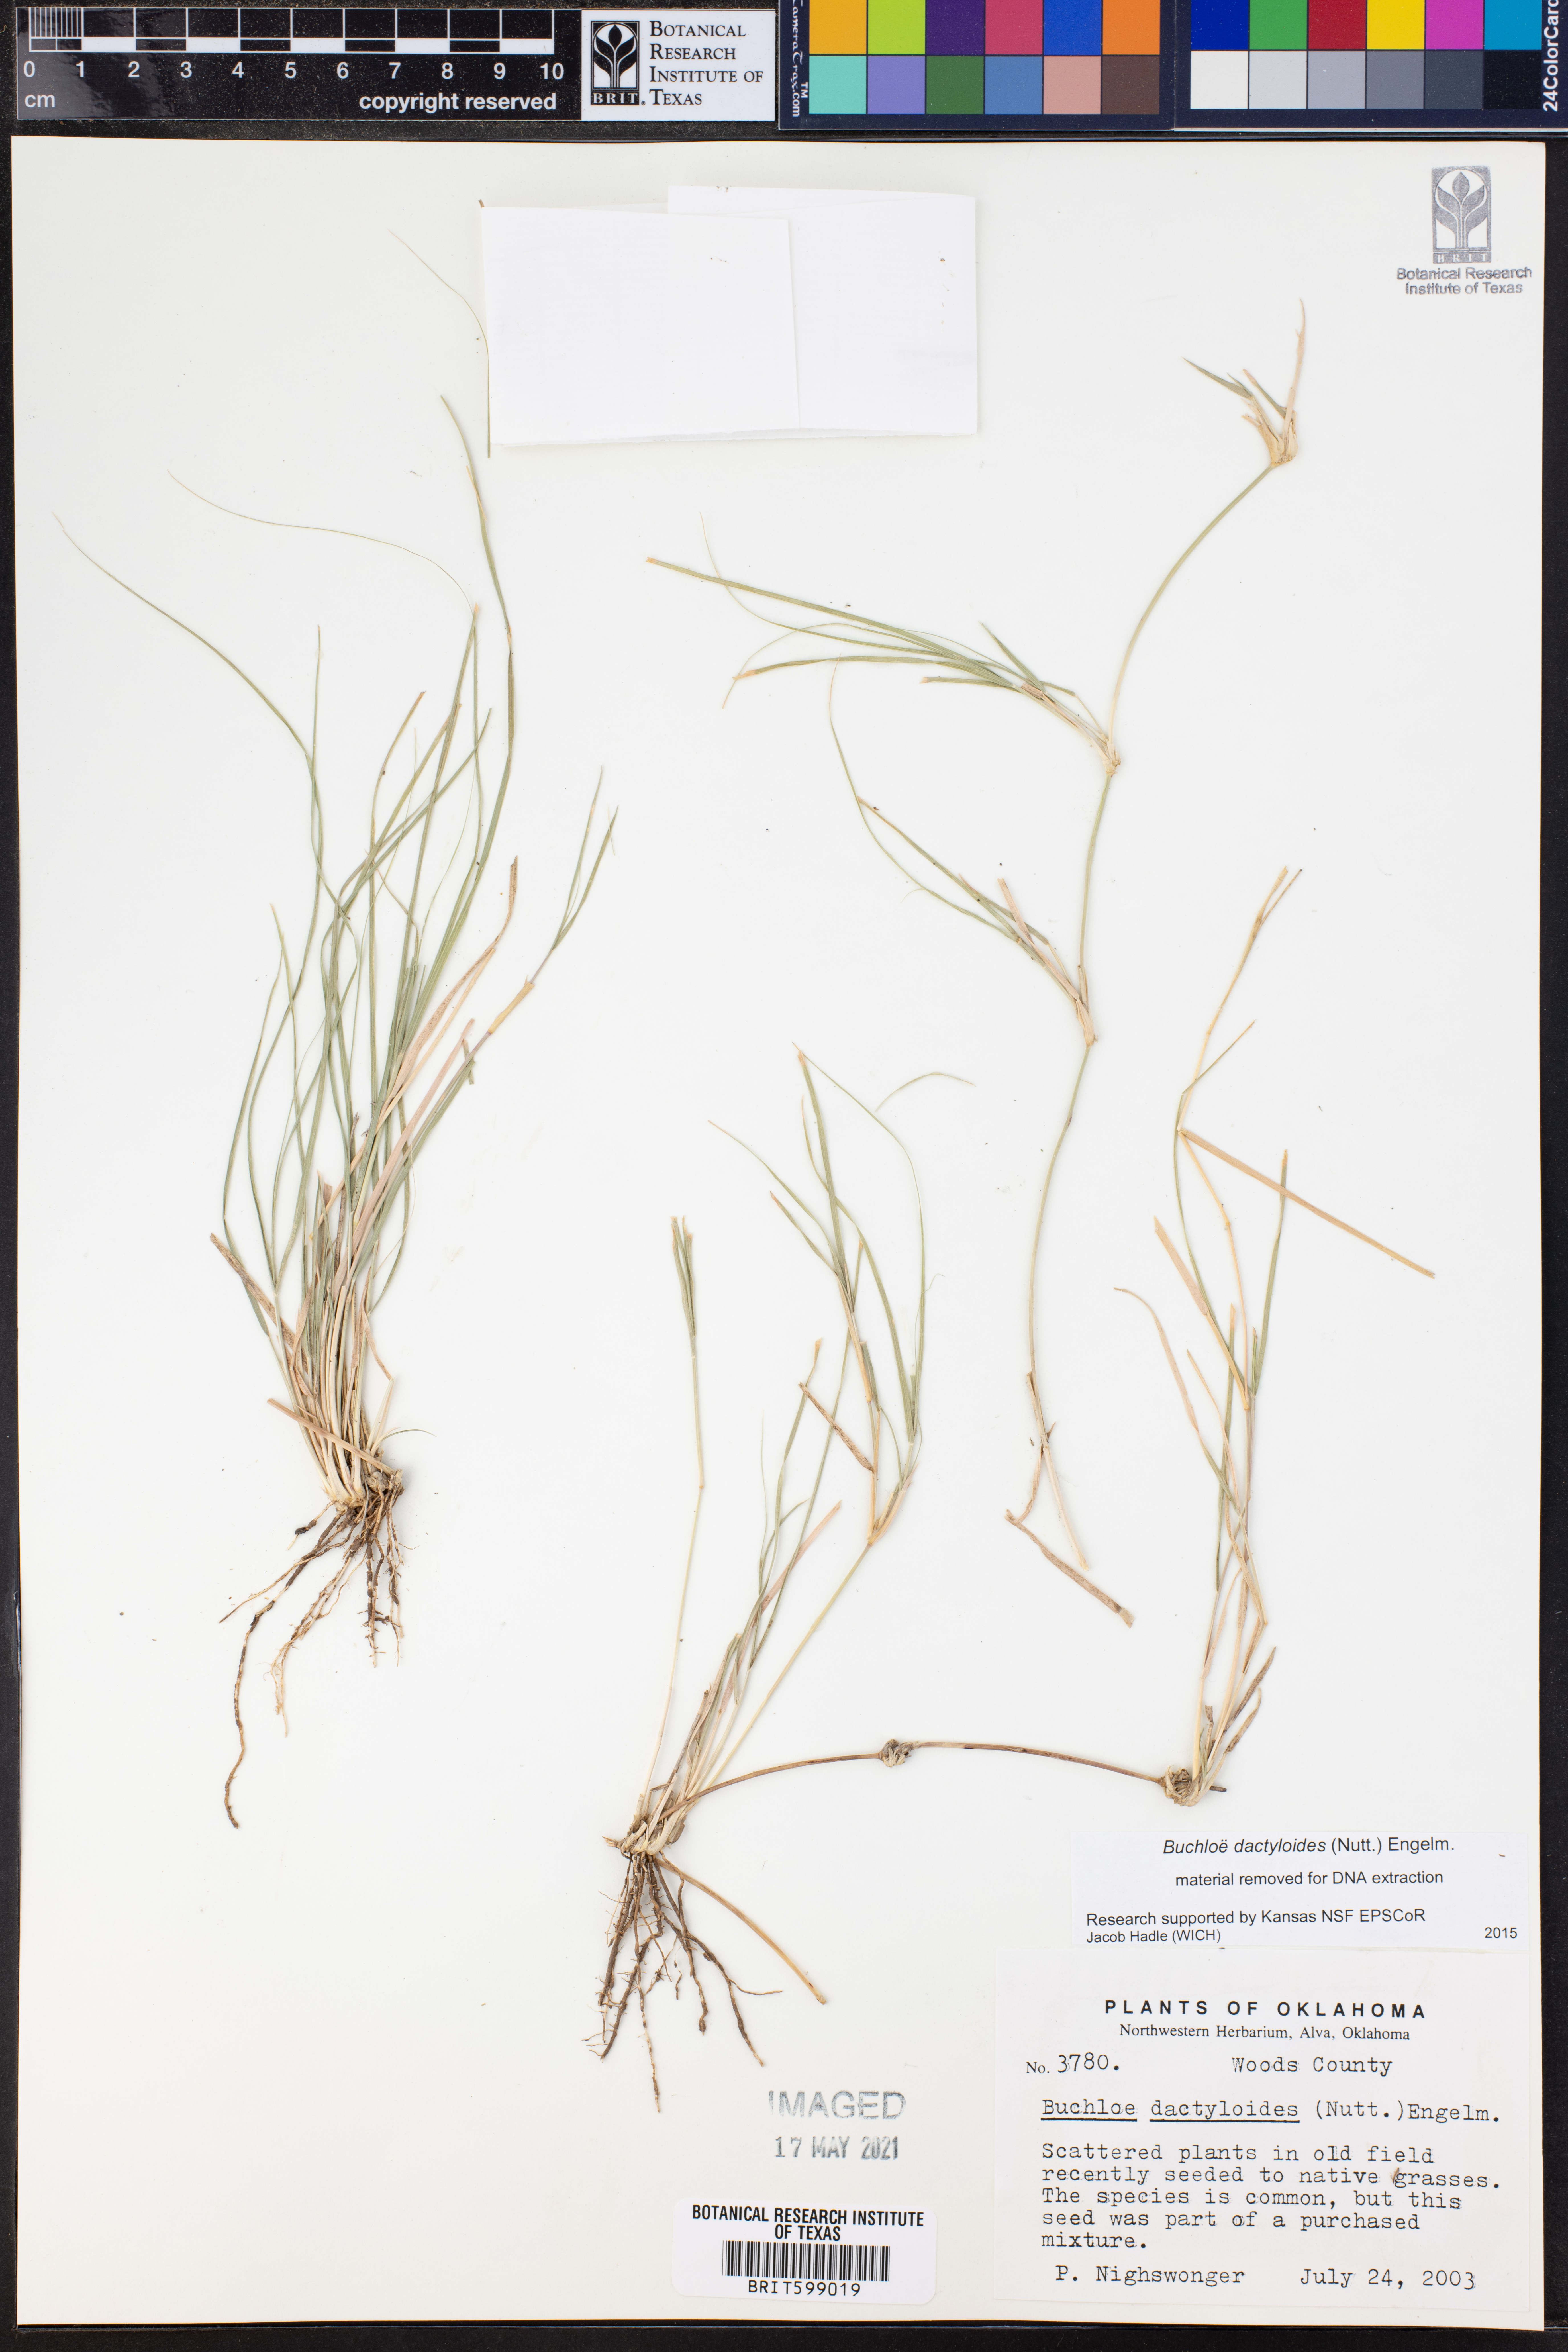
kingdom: Plantae
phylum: Tracheophyta
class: Liliopsida
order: Poales
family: Poaceae
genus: Bouteloua
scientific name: Bouteloua dactyloides
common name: Buffalo grass
